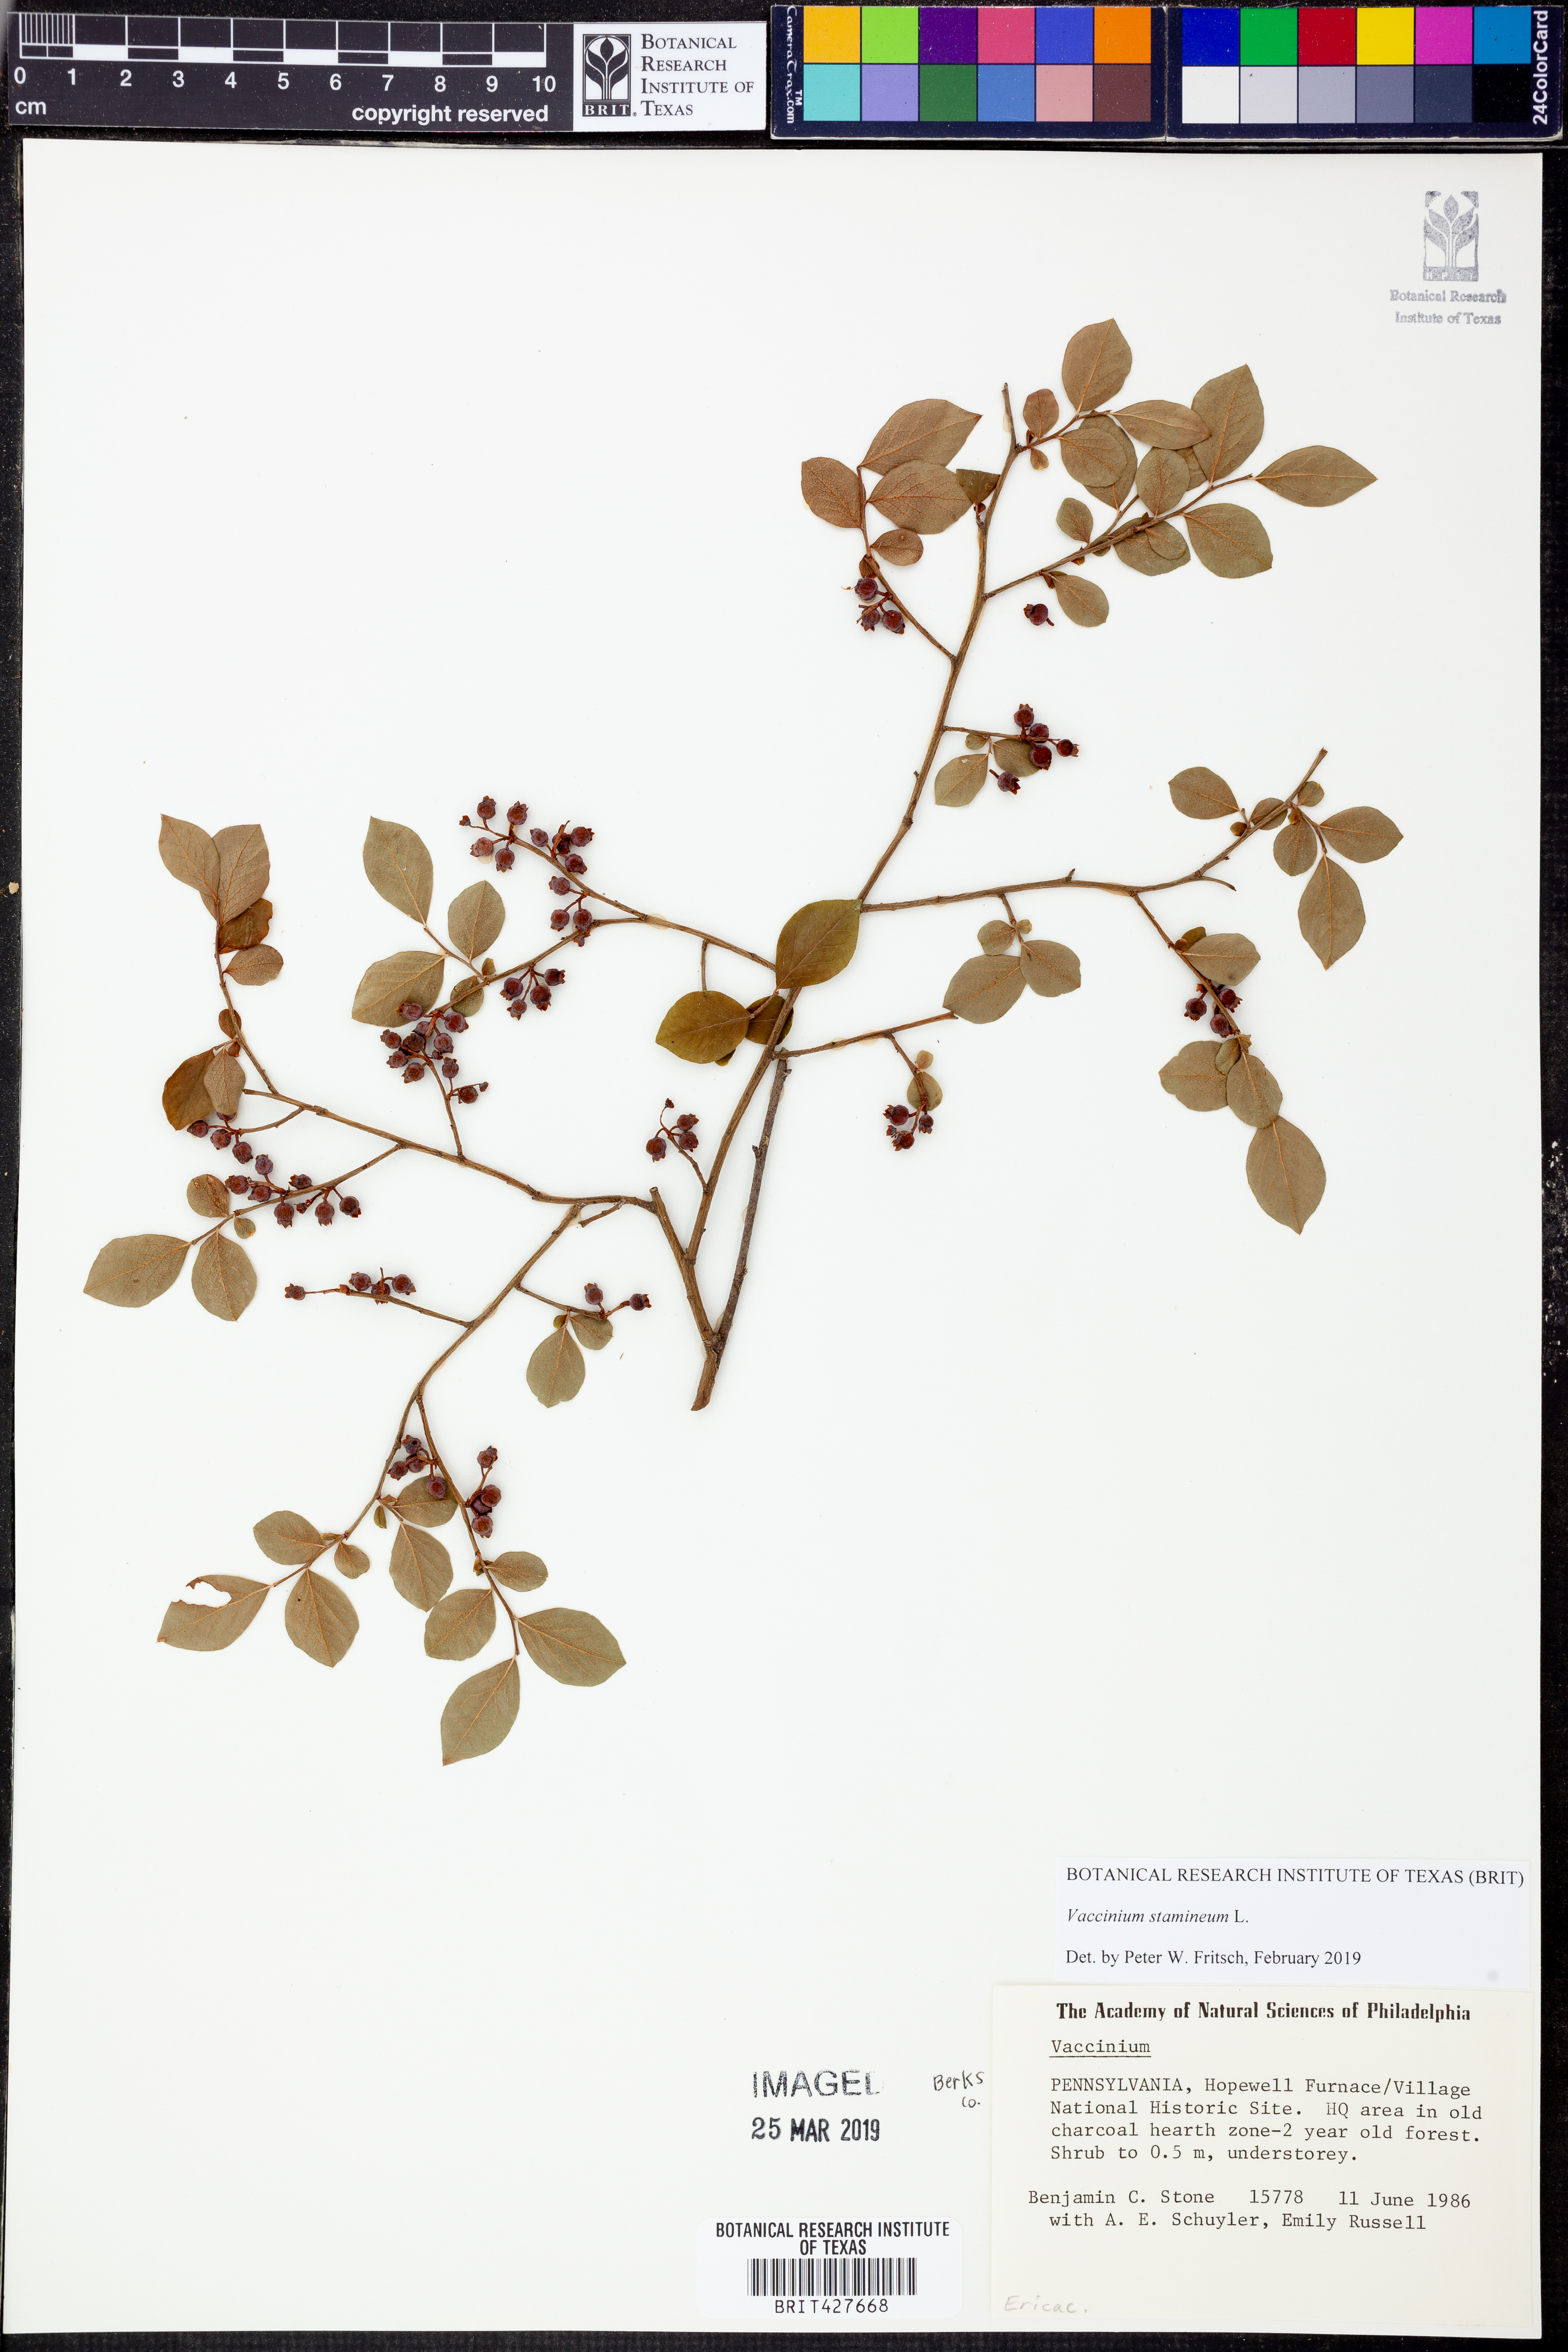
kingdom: Plantae
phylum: Tracheophyta
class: Magnoliopsida
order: Ericales
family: Ericaceae
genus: Vaccinium
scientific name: Vaccinium stamineum
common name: Deerberry
